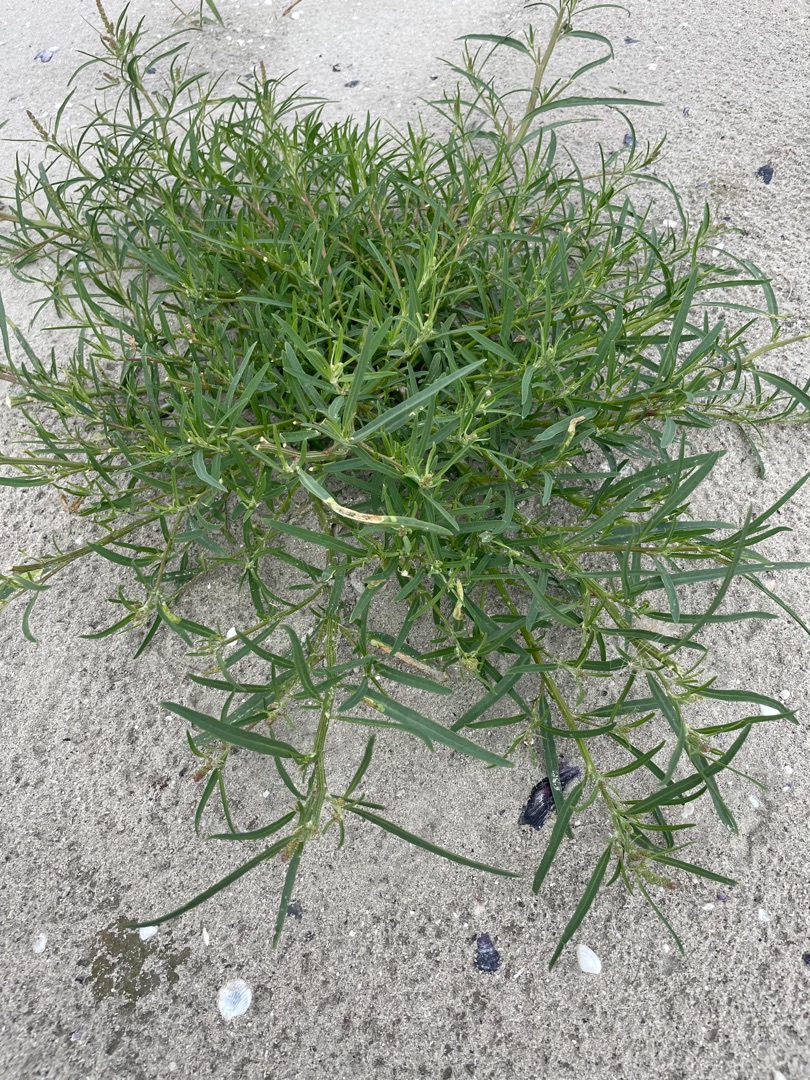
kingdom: Plantae
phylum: Tracheophyta
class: Magnoliopsida
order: Caryophyllales
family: Amaranthaceae
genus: Atriplex
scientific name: Atriplex littoralis
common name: Strand-mælde
